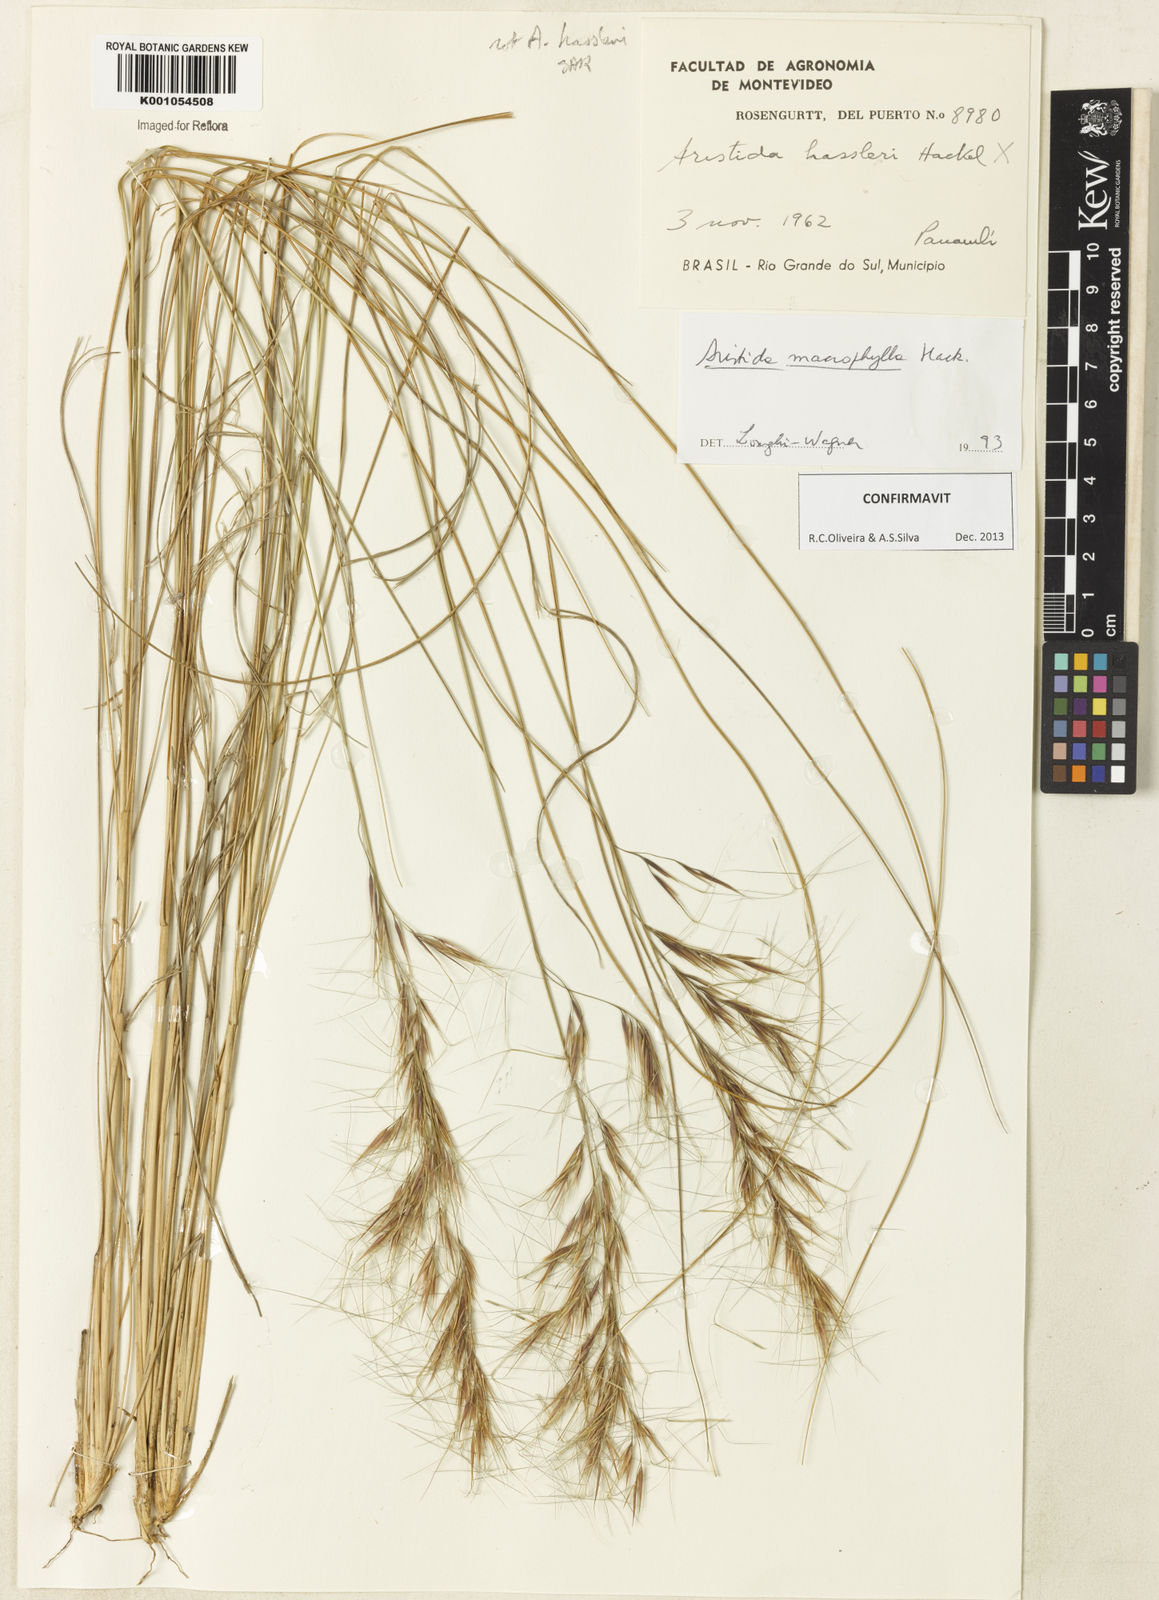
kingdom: Plantae
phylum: Tracheophyta
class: Liliopsida
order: Poales
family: Poaceae
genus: Aristida
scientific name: Aristida macrophylla
